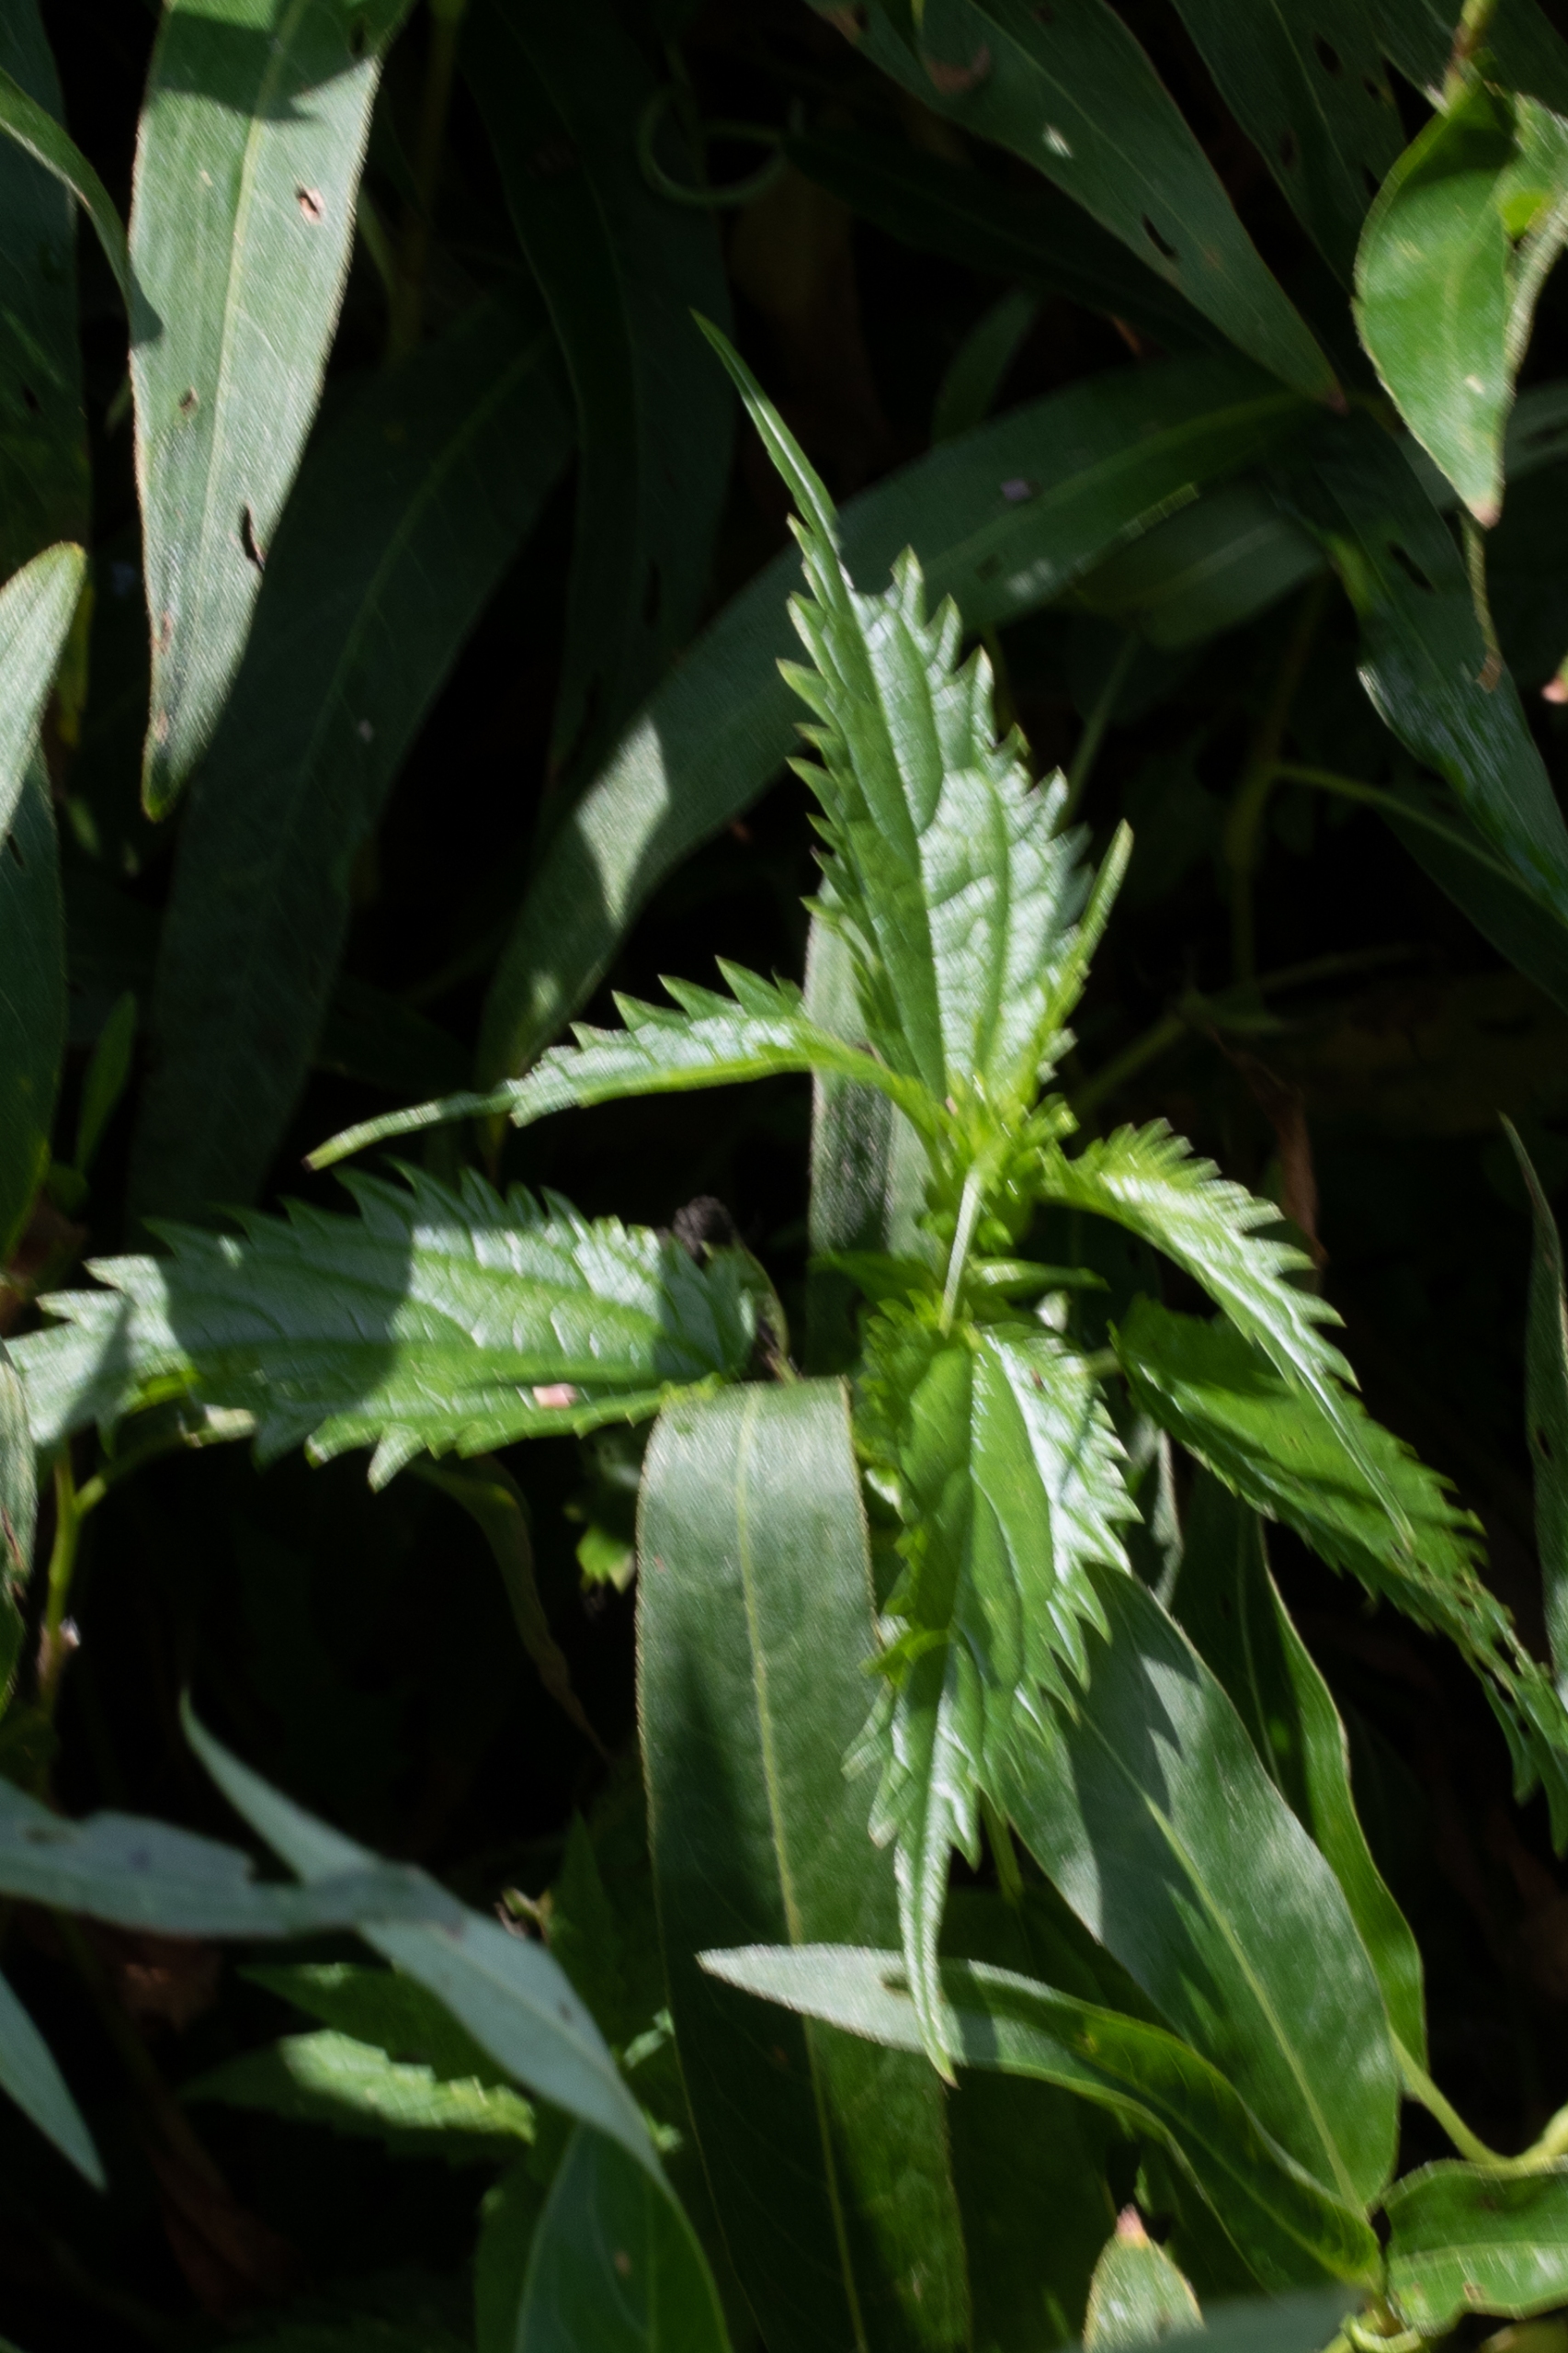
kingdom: Plantae
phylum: Tracheophyta
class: Magnoliopsida
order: Rosales
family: Urticaceae
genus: Urtica
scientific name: Urtica kioviensis
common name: Sump-nælde
